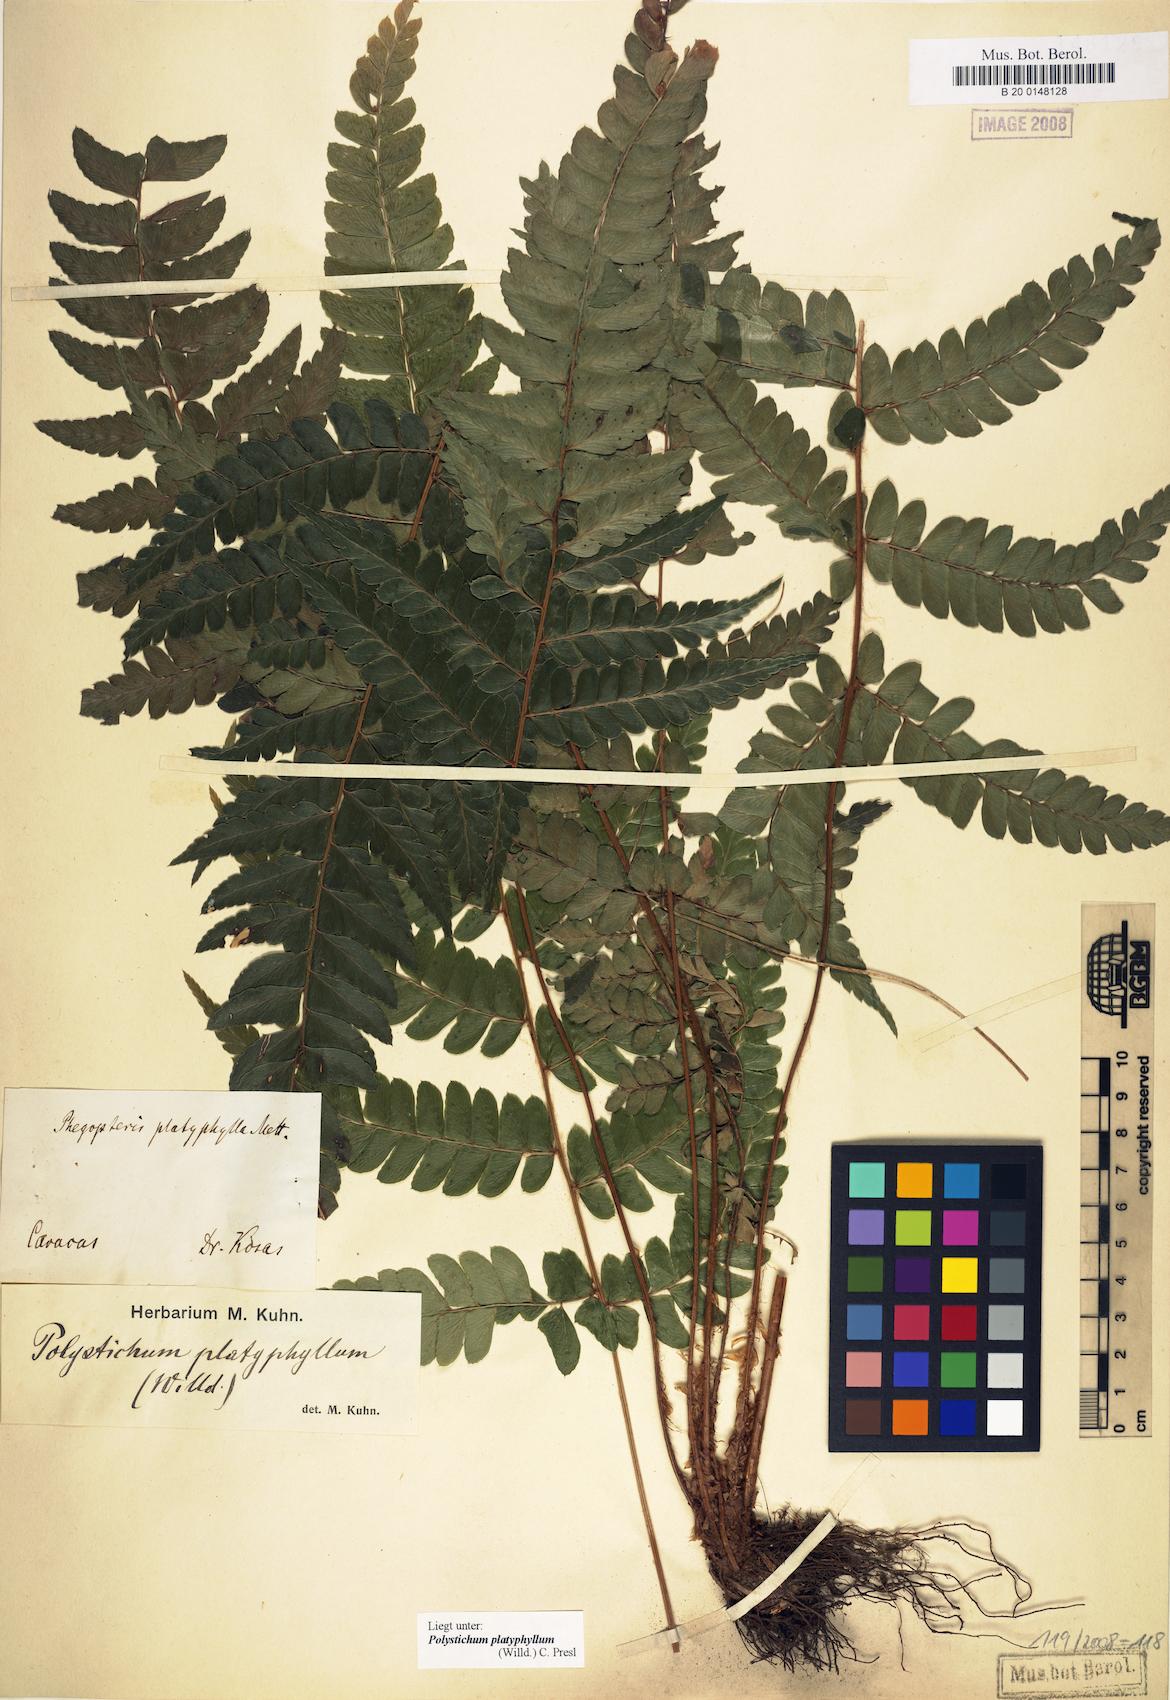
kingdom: Plantae
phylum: Tracheophyta
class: Polypodiopsida
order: Polypodiales
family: Dryopteridaceae
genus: Polystichum
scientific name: Polystichum platyphyllum
